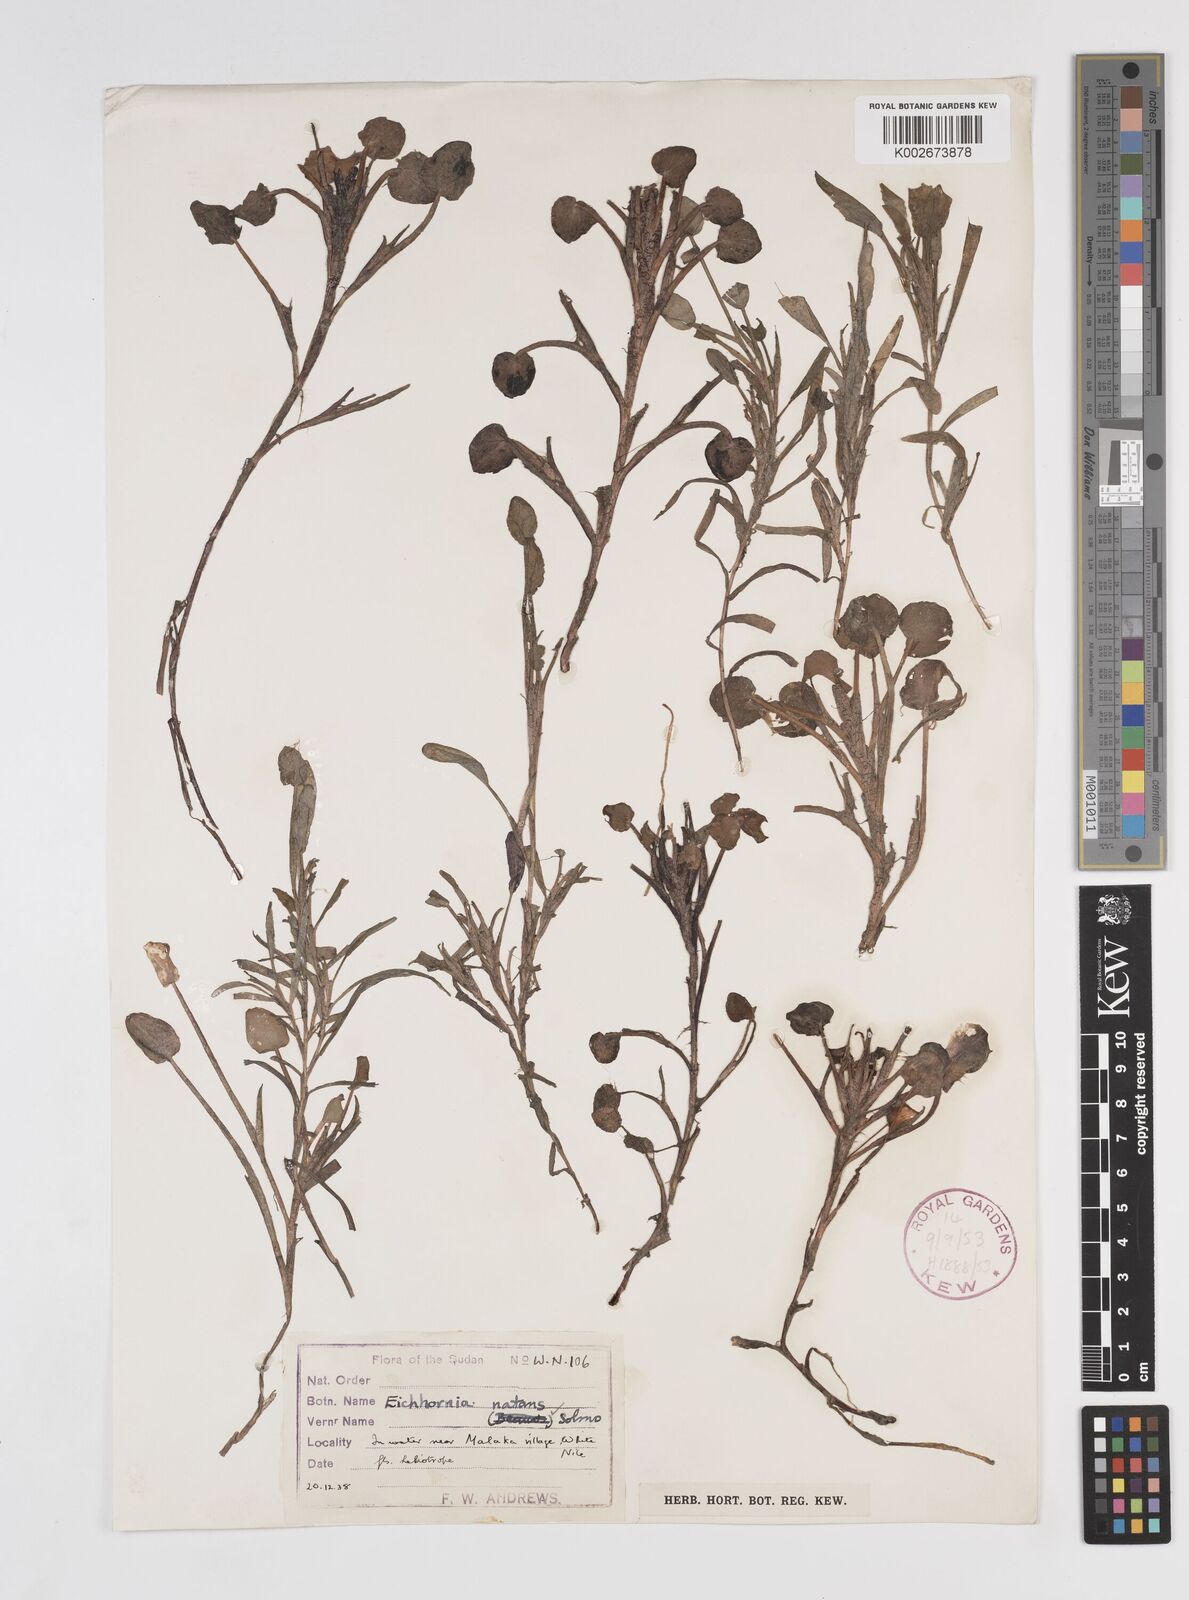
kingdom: Plantae
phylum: Tracheophyta
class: Liliopsida
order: Commelinales
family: Pontederiaceae
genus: Pontederia
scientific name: Pontederia diversifolia
